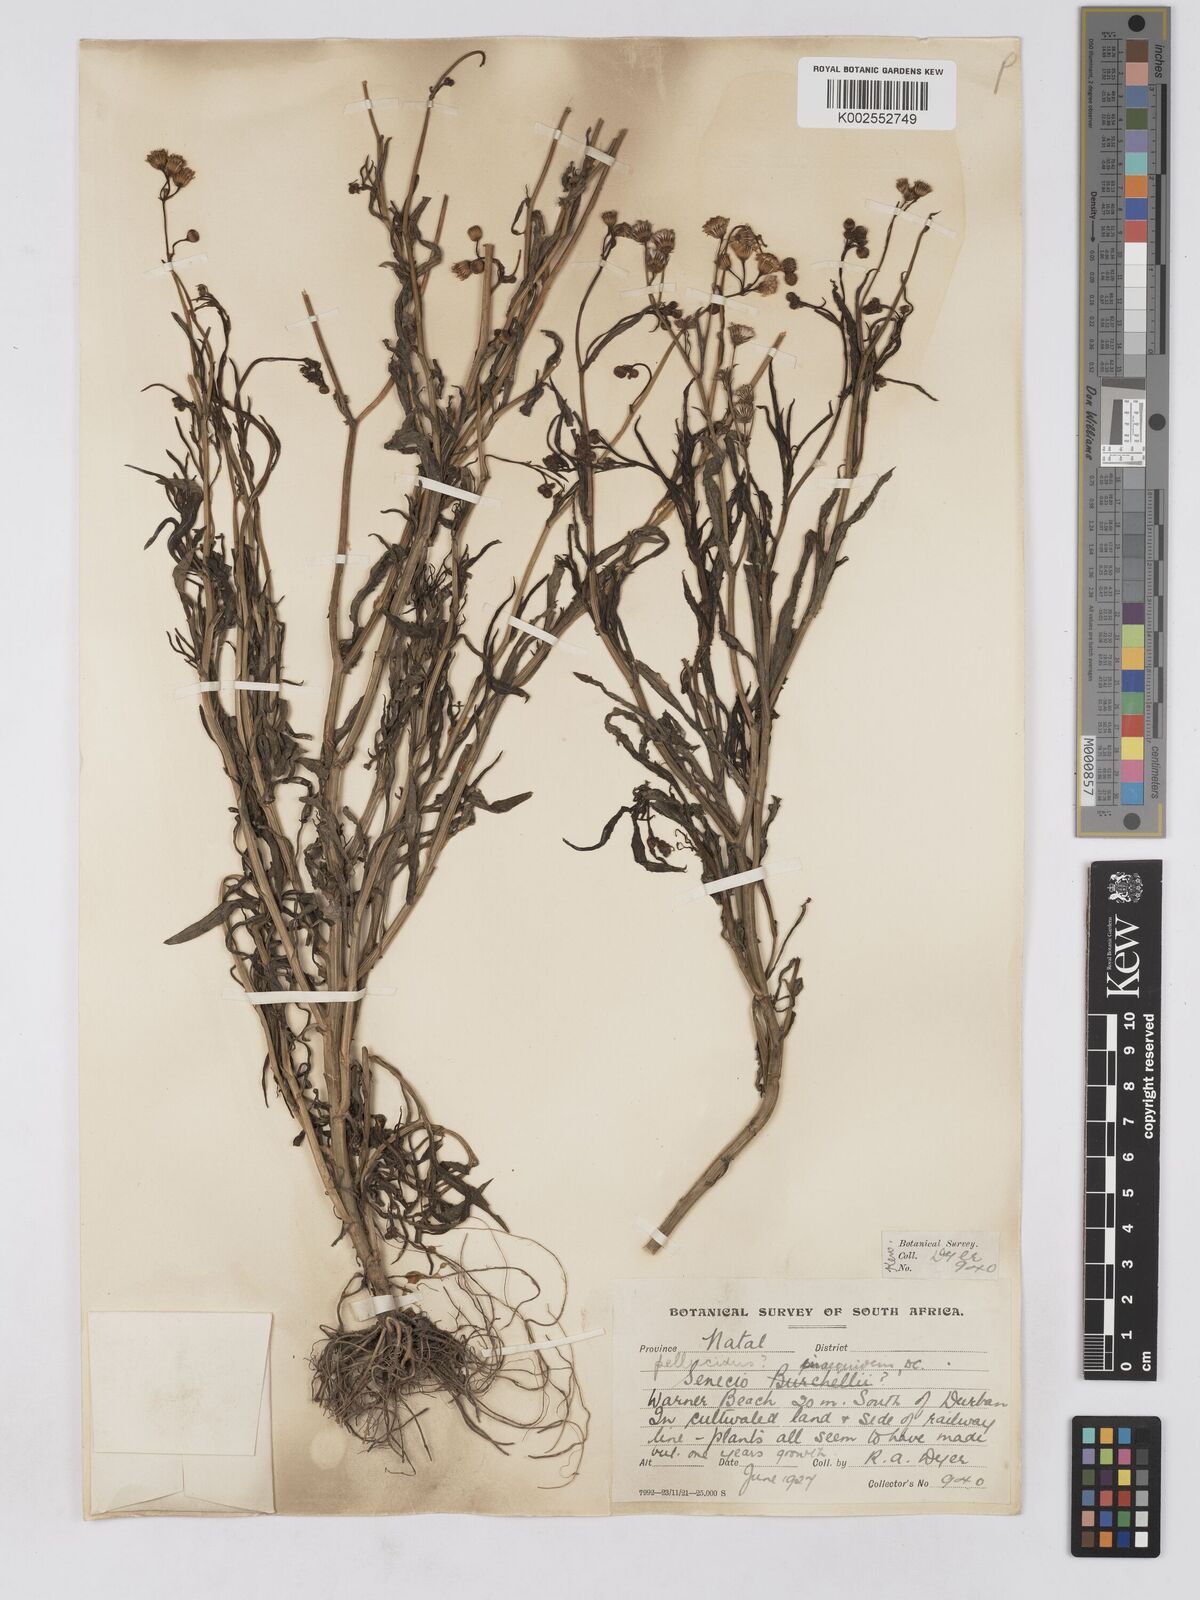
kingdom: Plantae
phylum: Tracheophyta
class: Magnoliopsida
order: Asterales
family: Asteraceae
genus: Senecio
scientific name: Senecio madagascariensis
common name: Madagascar ragwort
